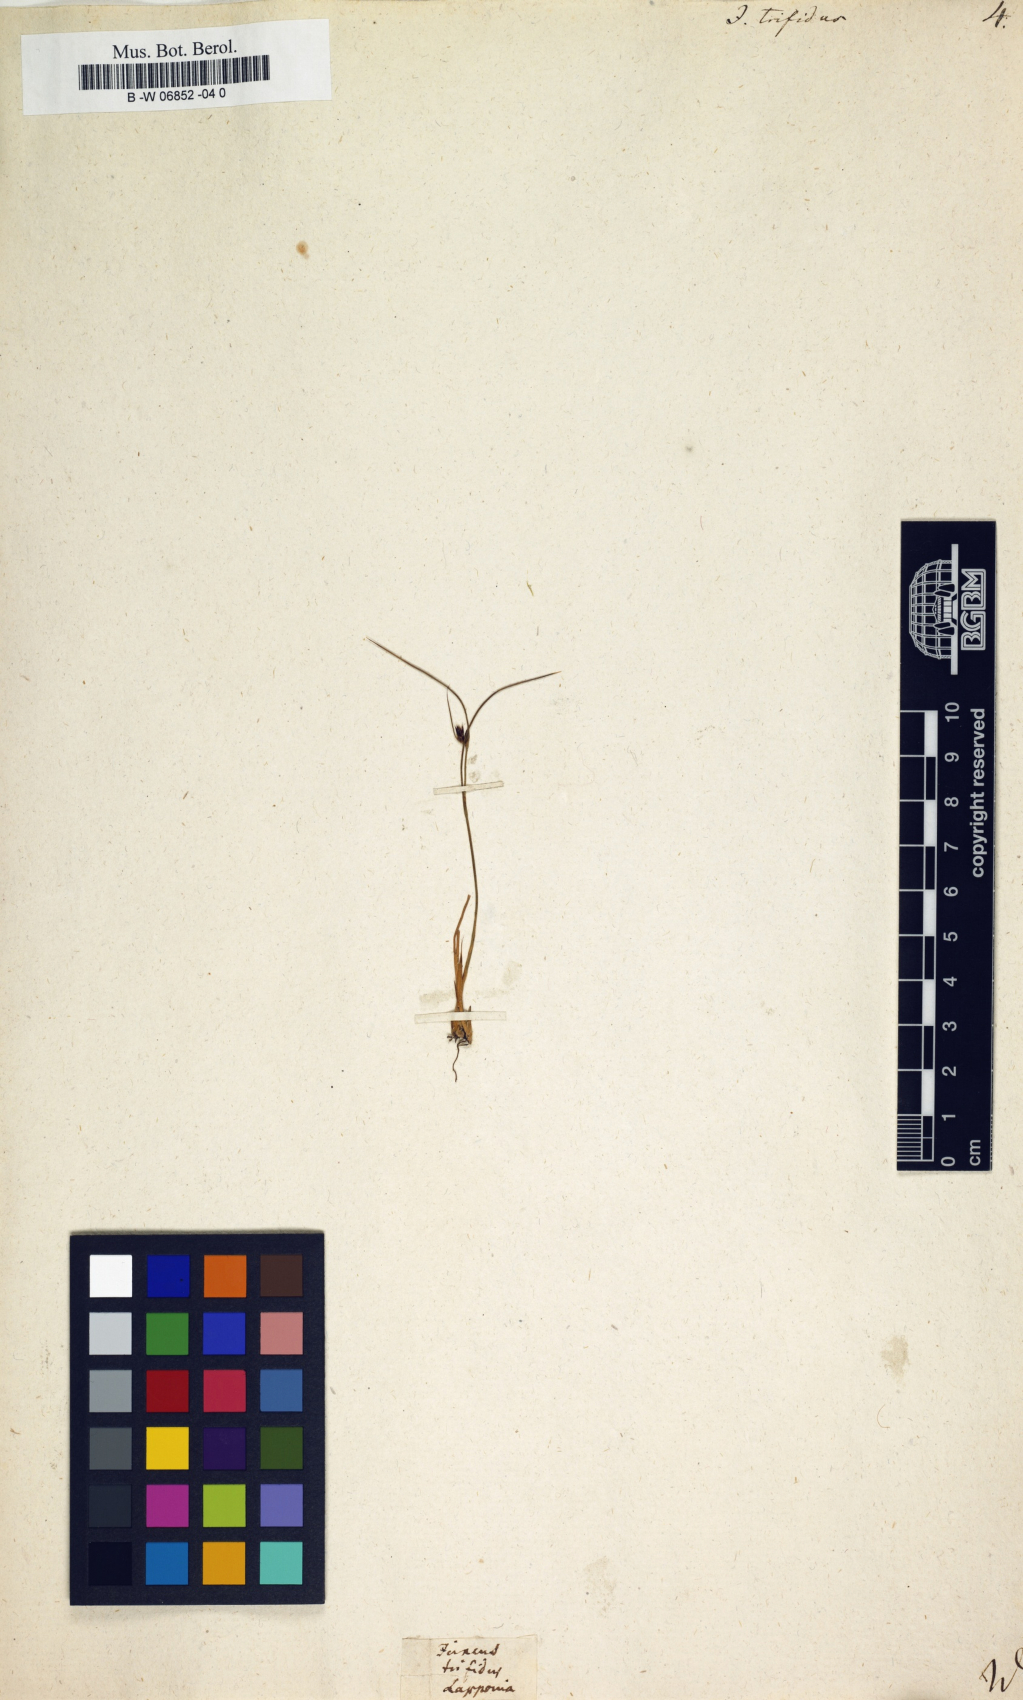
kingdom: Plantae
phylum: Tracheophyta
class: Liliopsida
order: Poales
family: Juncaceae
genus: Oreojuncus
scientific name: Oreojuncus trifidus
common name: Highland rush
